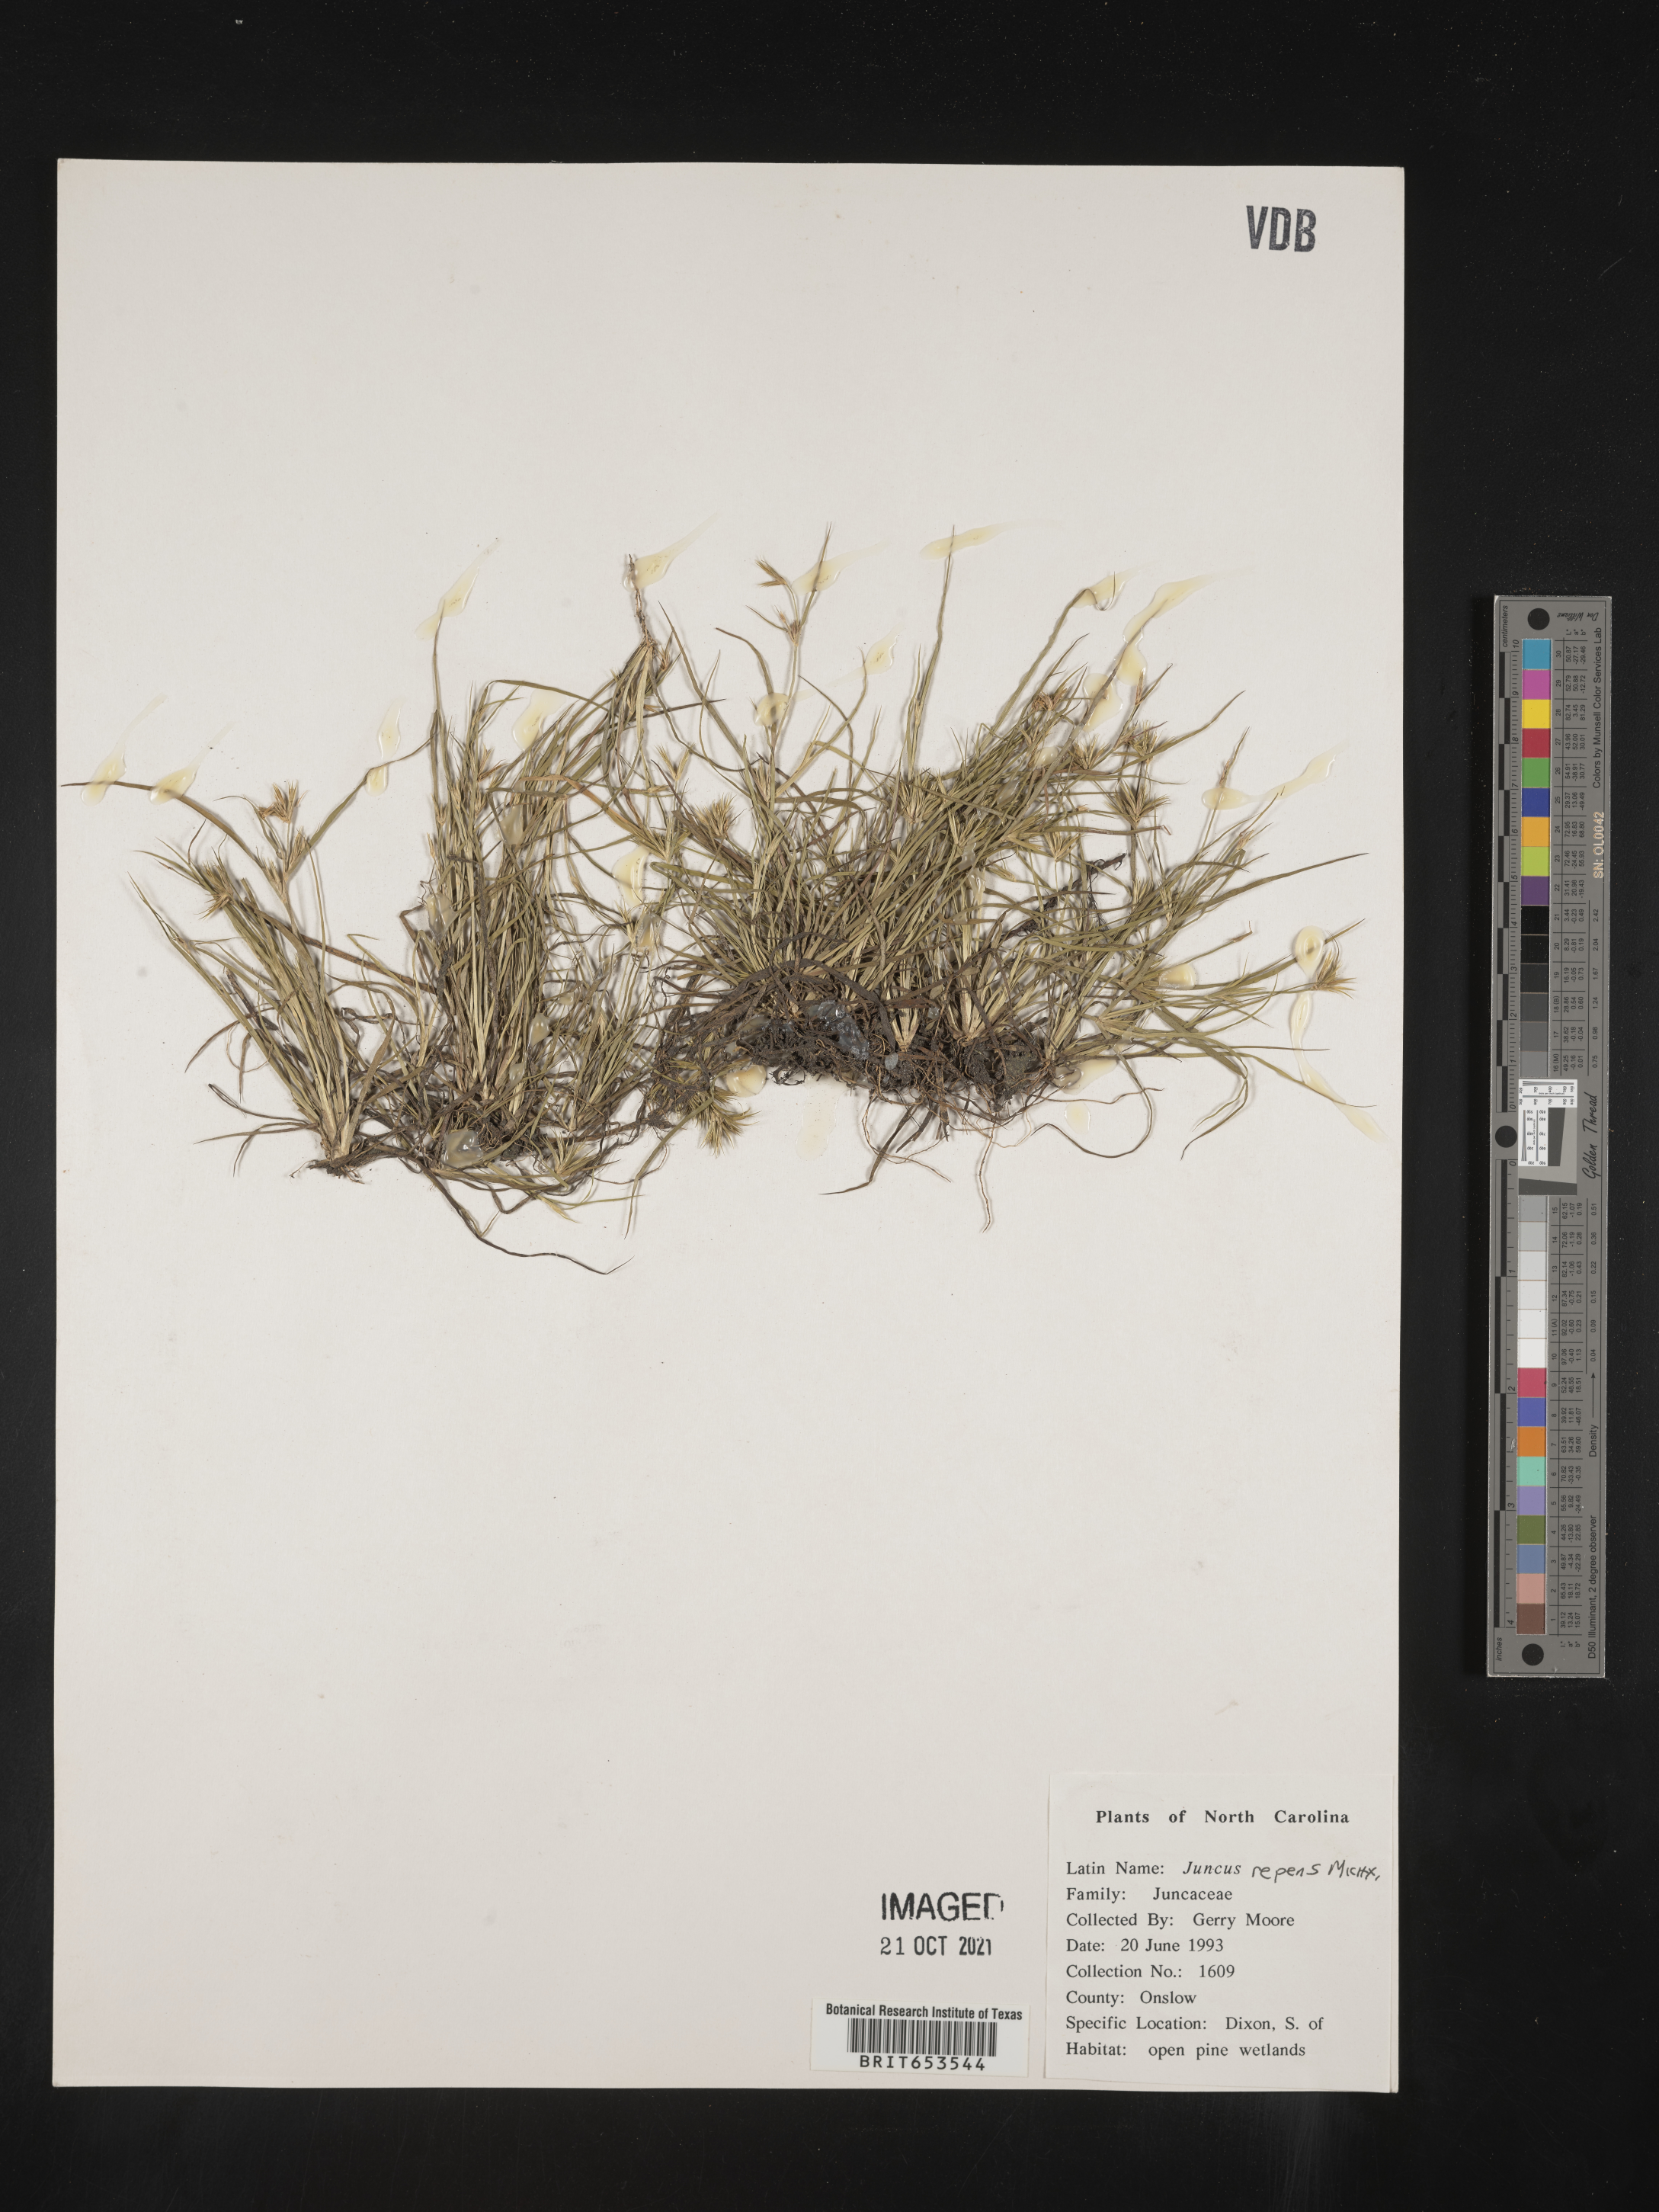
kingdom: Plantae
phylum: Tracheophyta
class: Liliopsida
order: Poales
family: Juncaceae
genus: Juncus
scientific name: Juncus repens
